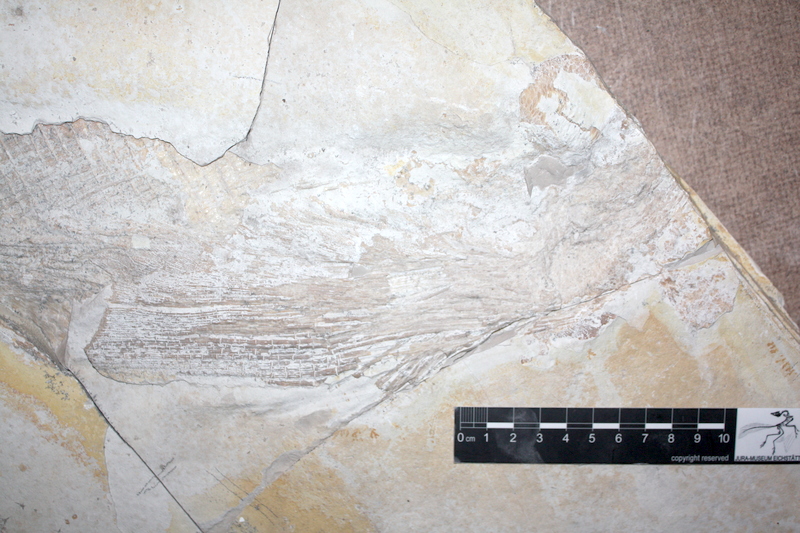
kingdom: Animalia
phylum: Chordata
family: Pachycormidae
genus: Asthenocormus
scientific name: Asthenocormus titanius
